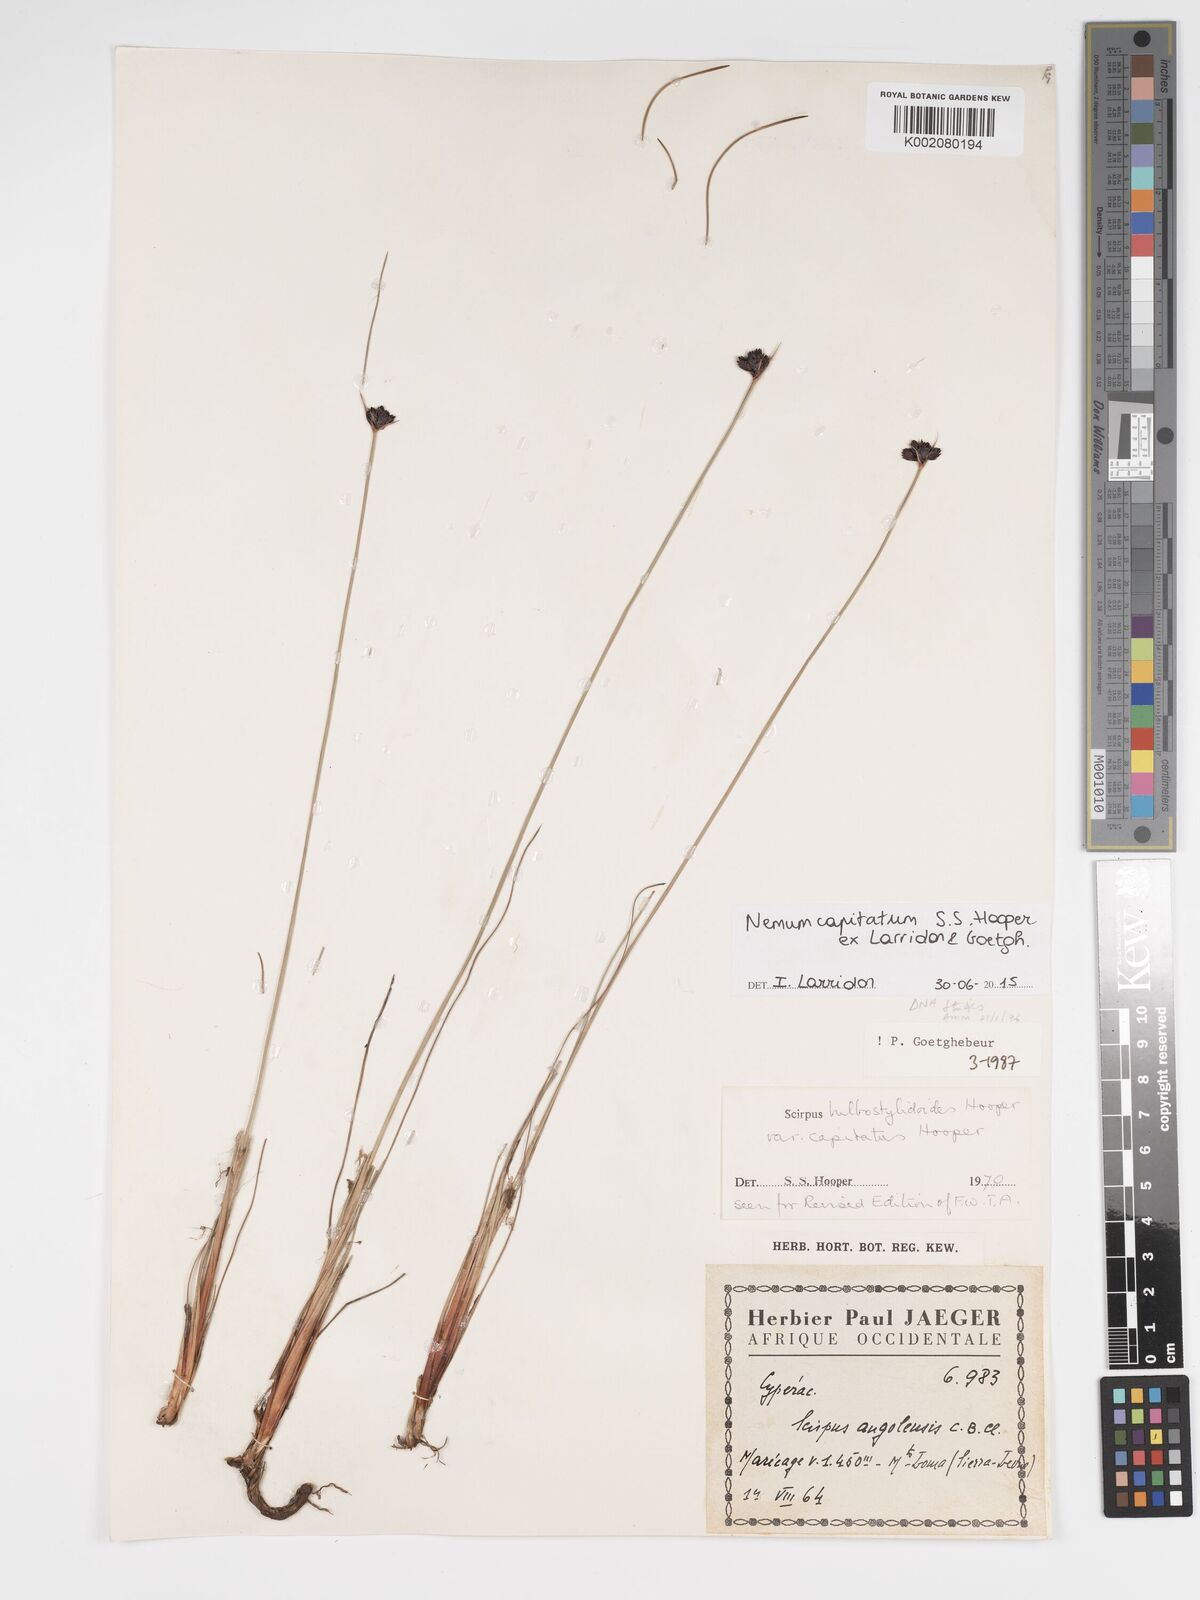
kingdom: Plantae
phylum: Tracheophyta
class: Liliopsida
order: Poales
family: Cyperaceae
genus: Bulbostylis
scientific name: Bulbostylis neocapitata
